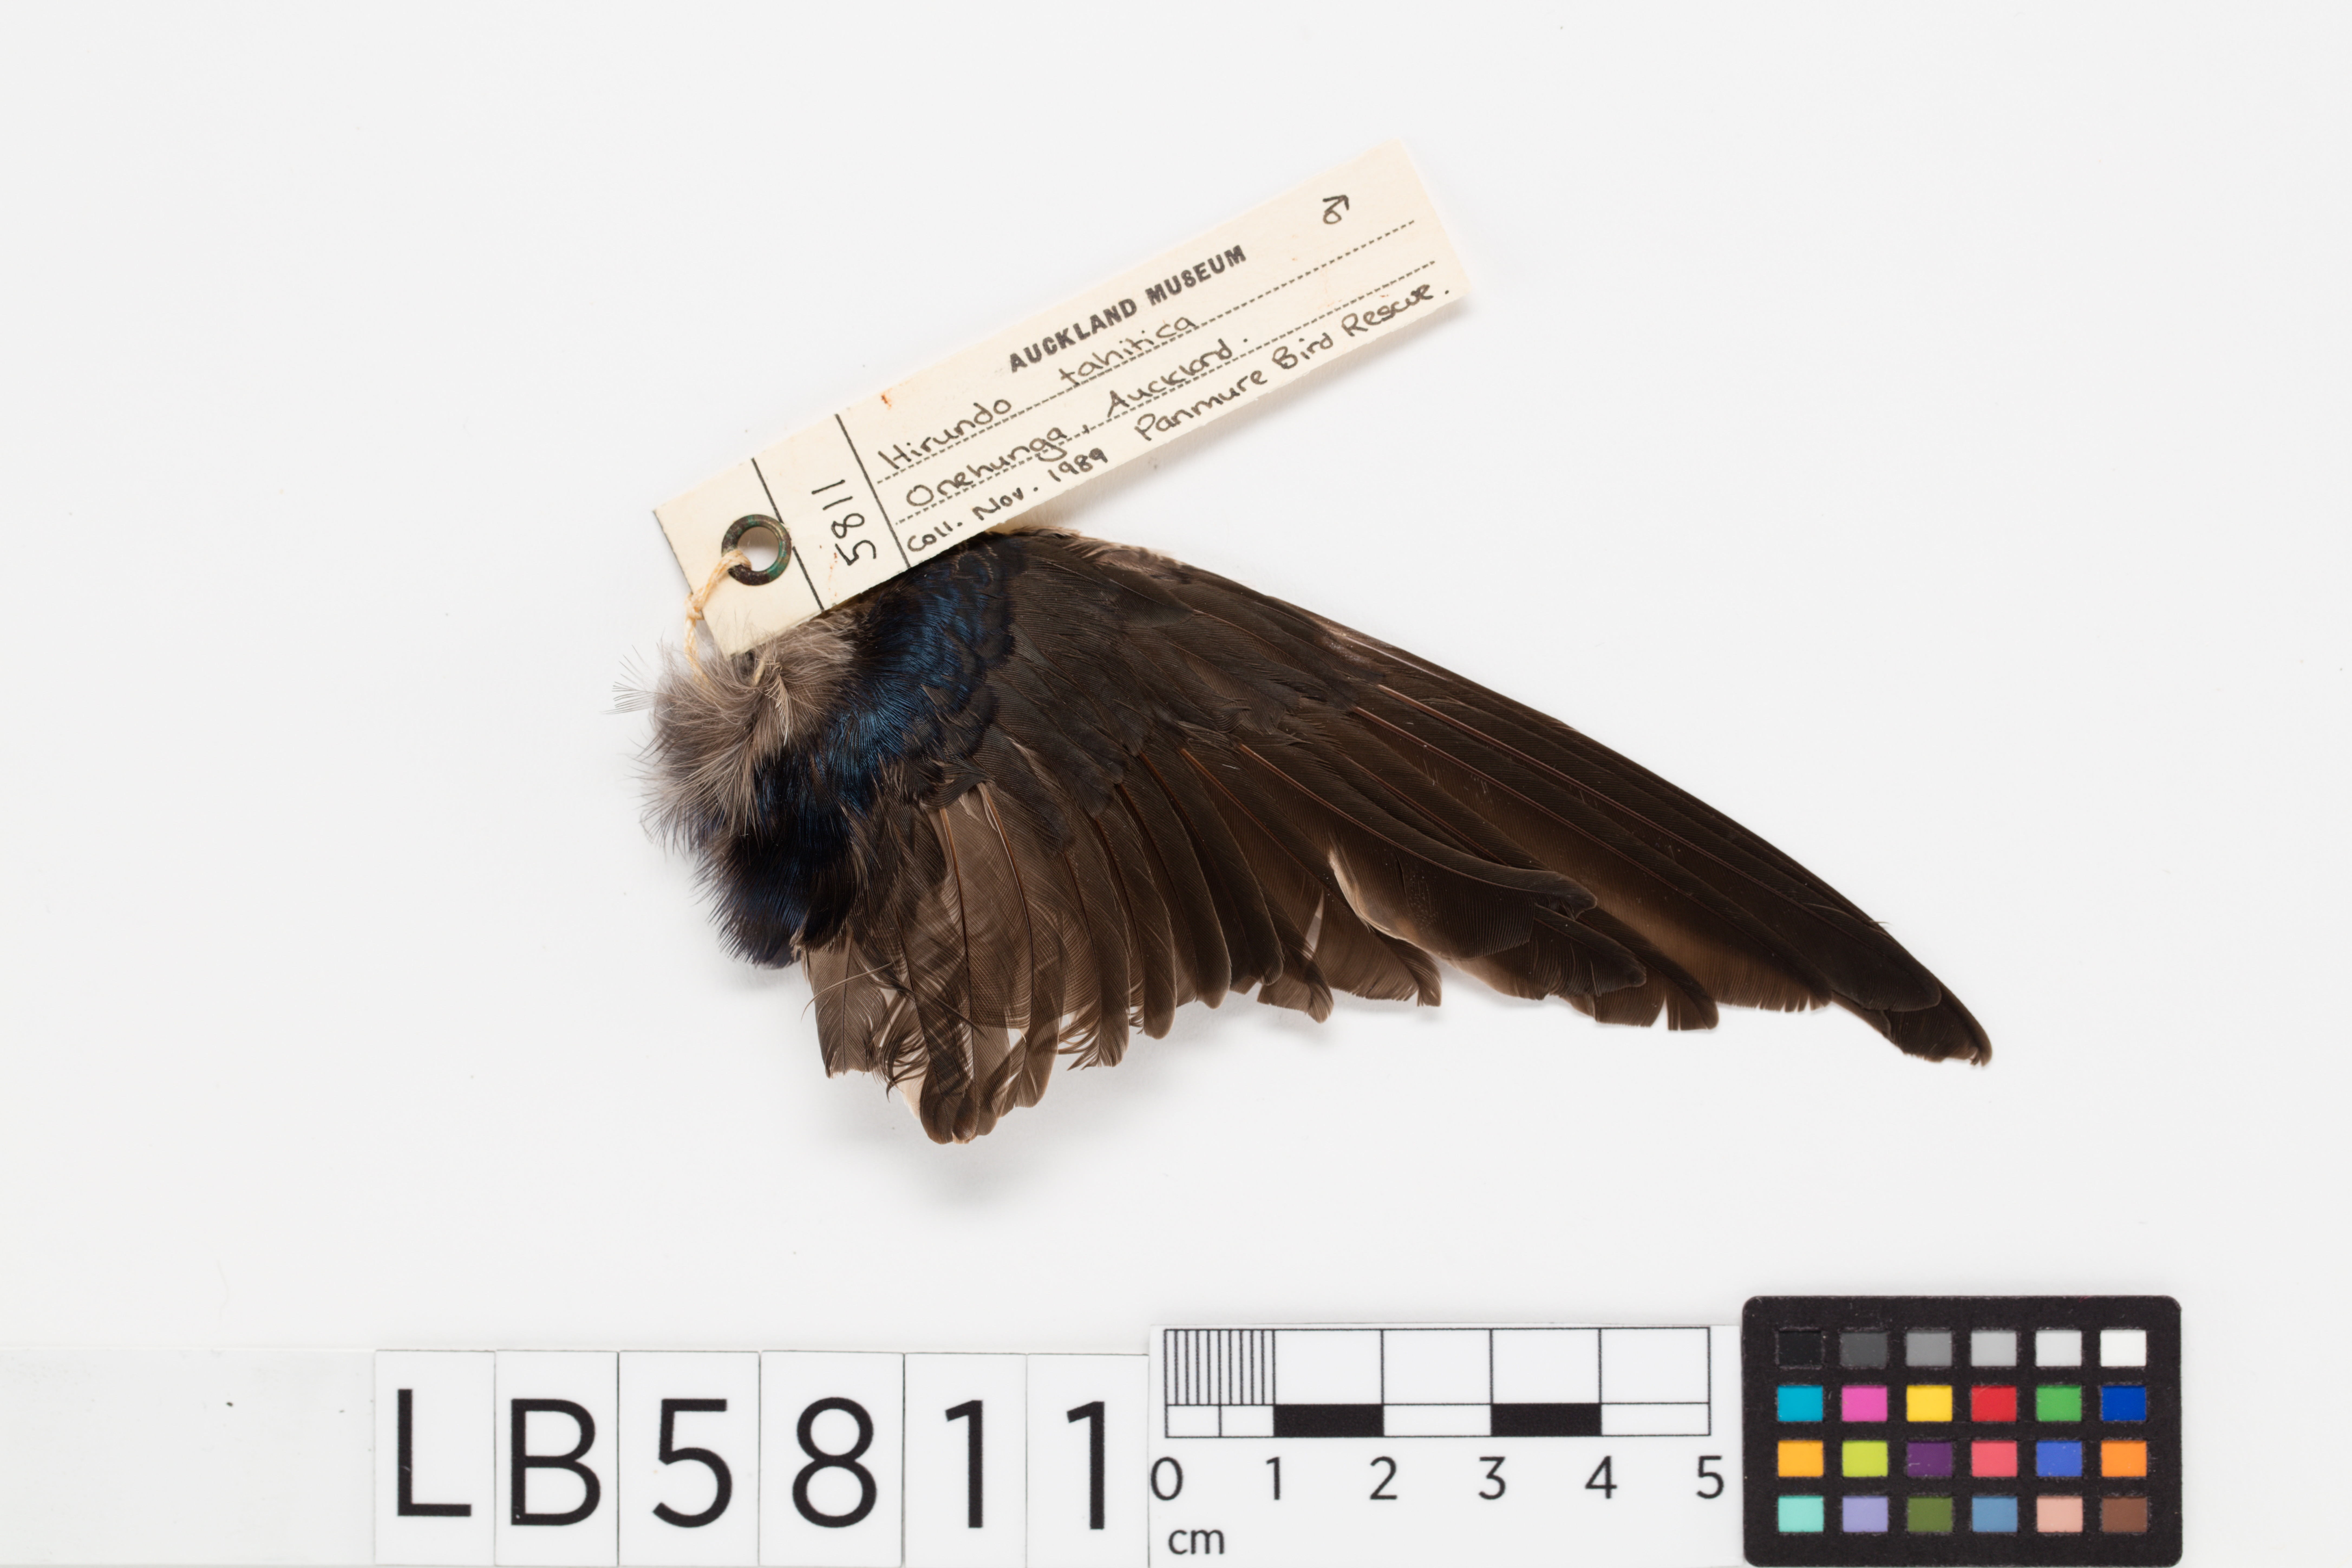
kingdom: Animalia
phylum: Chordata
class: Aves
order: Passeriformes
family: Hirundinidae
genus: Hirundo
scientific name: Hirundo neoxena
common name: Welcome swallow
